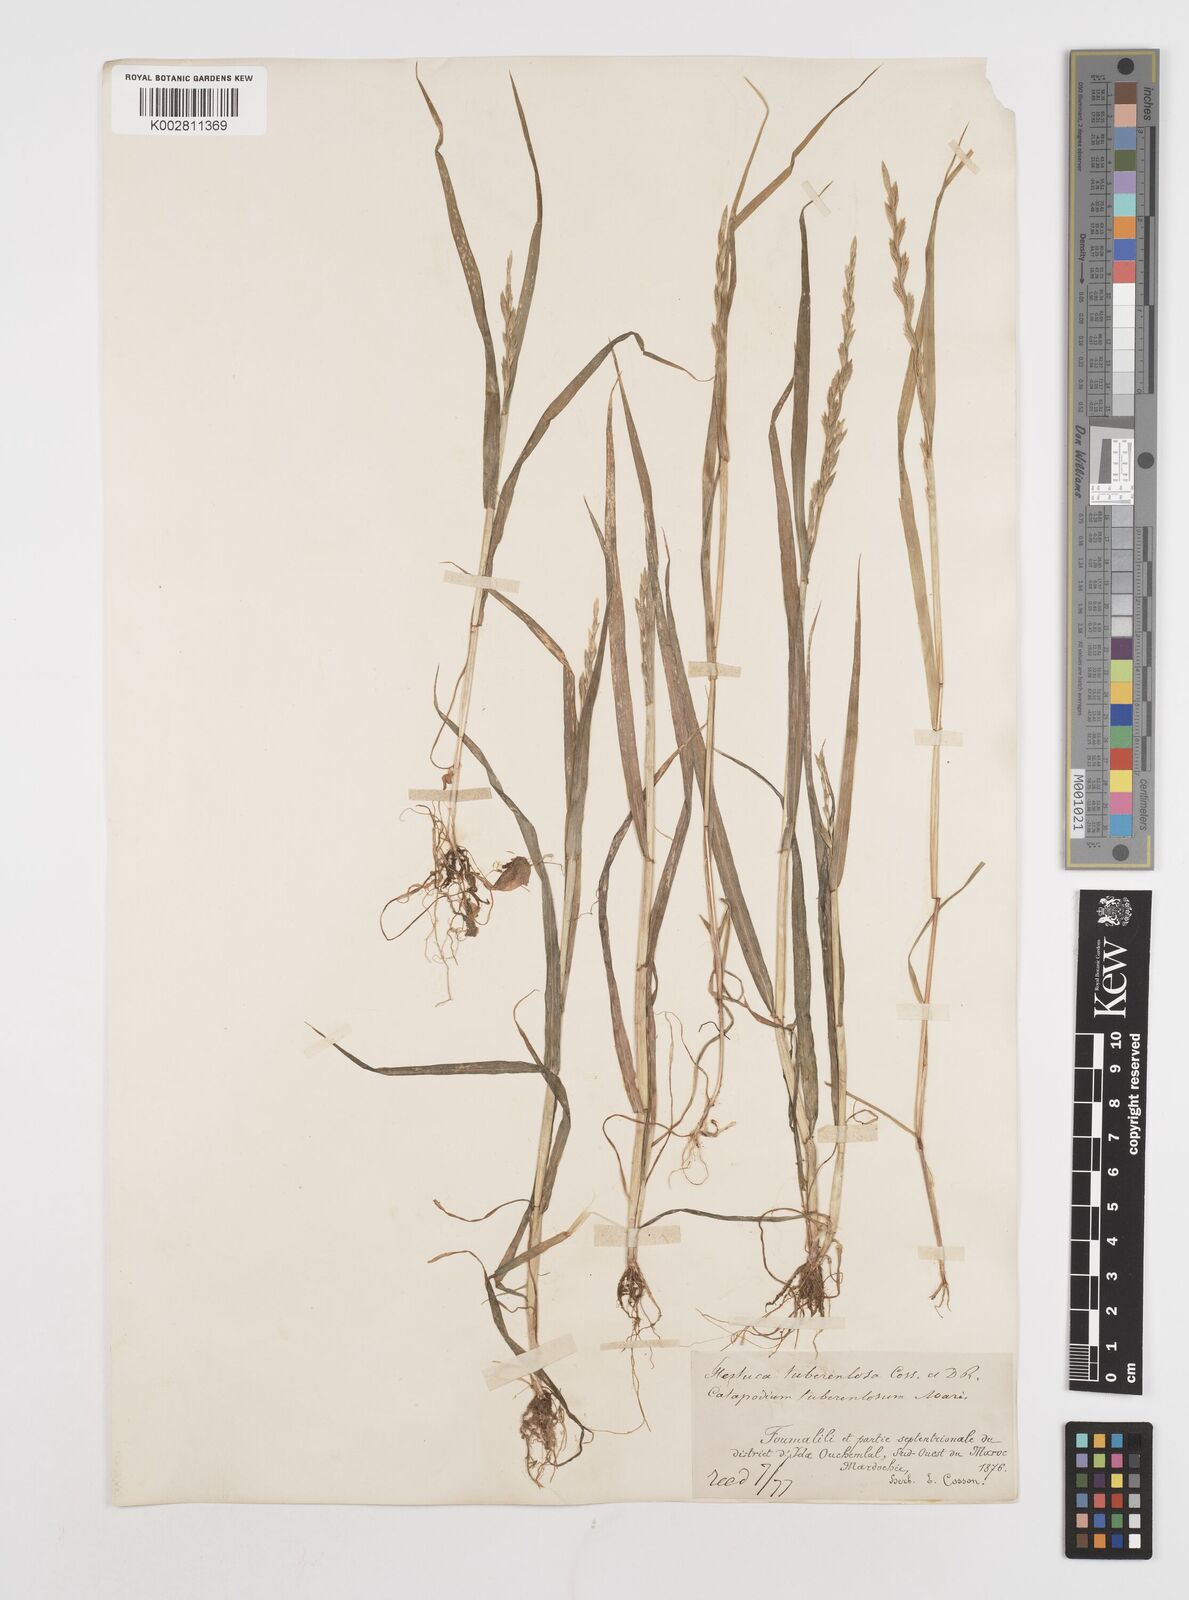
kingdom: Plantae
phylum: Tracheophyta
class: Liliopsida
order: Poales
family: Poaceae
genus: Castellia
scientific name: Castellia tuberculosa
